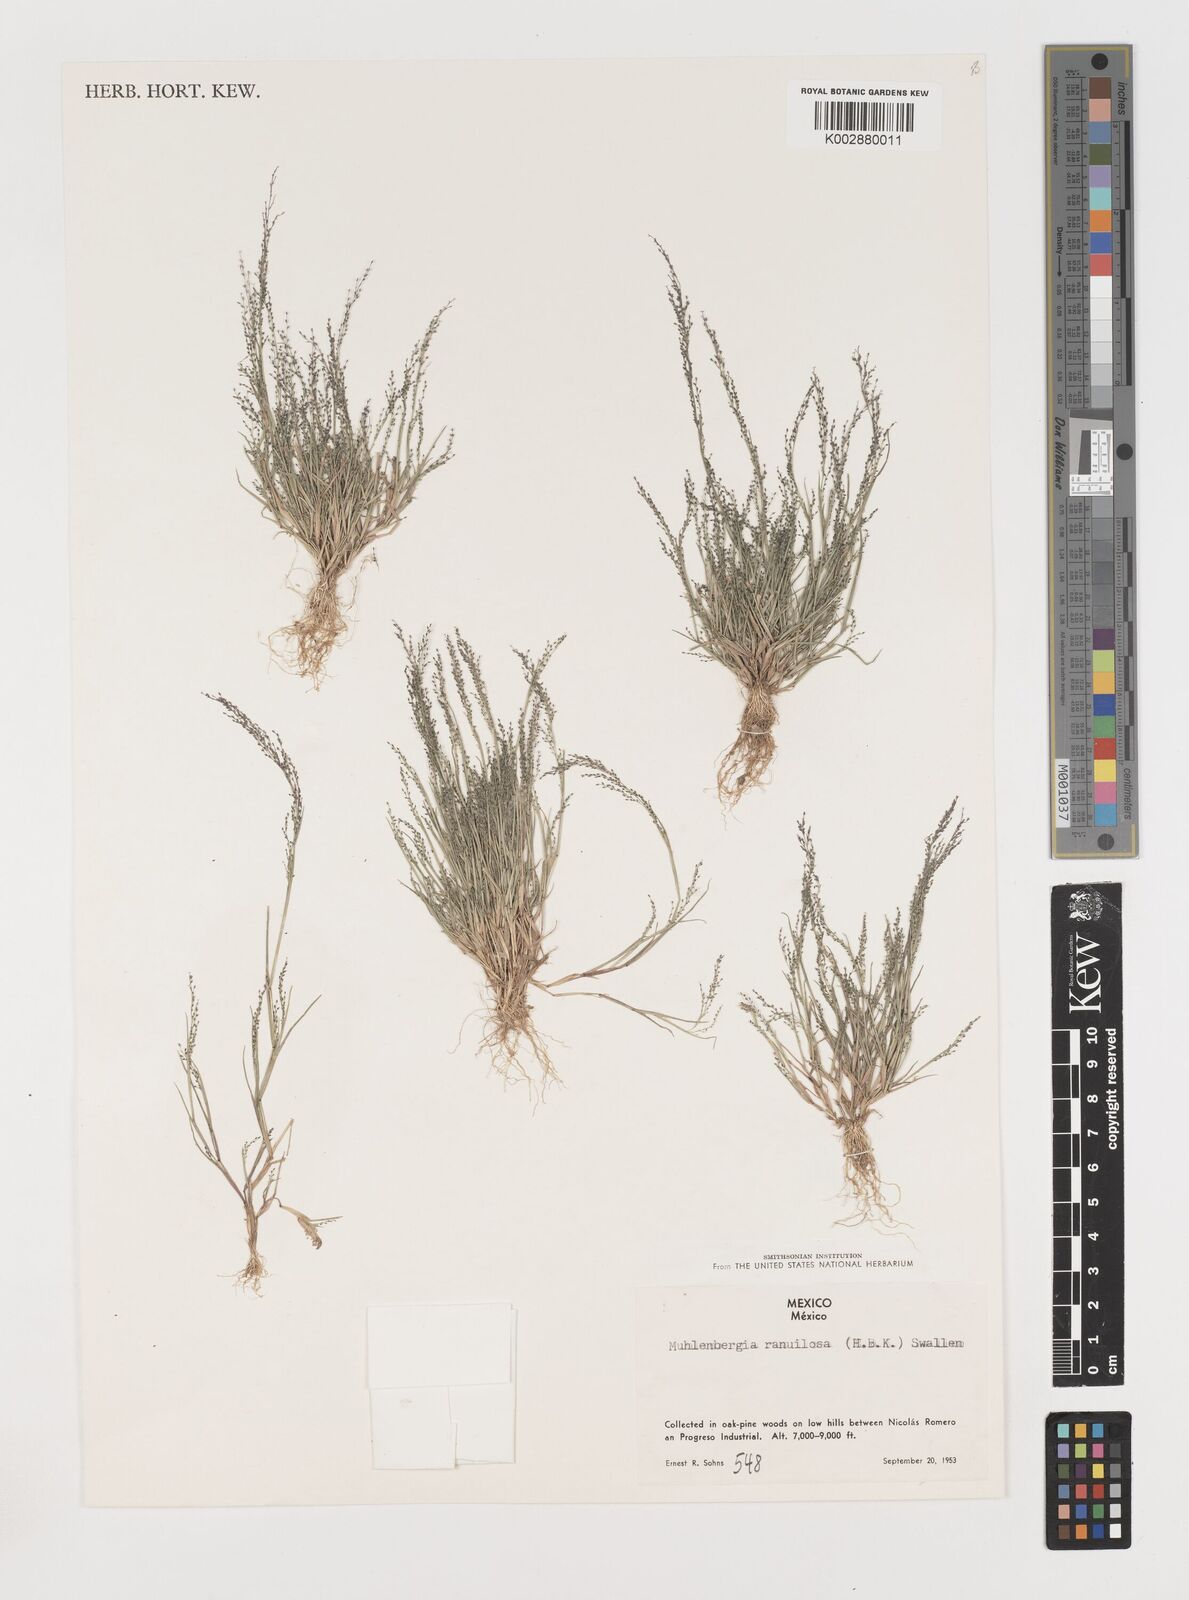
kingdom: Plantae
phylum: Tracheophyta
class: Liliopsida
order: Poales
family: Poaceae
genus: Muhlenbergia
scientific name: Muhlenbergia ramulosa
